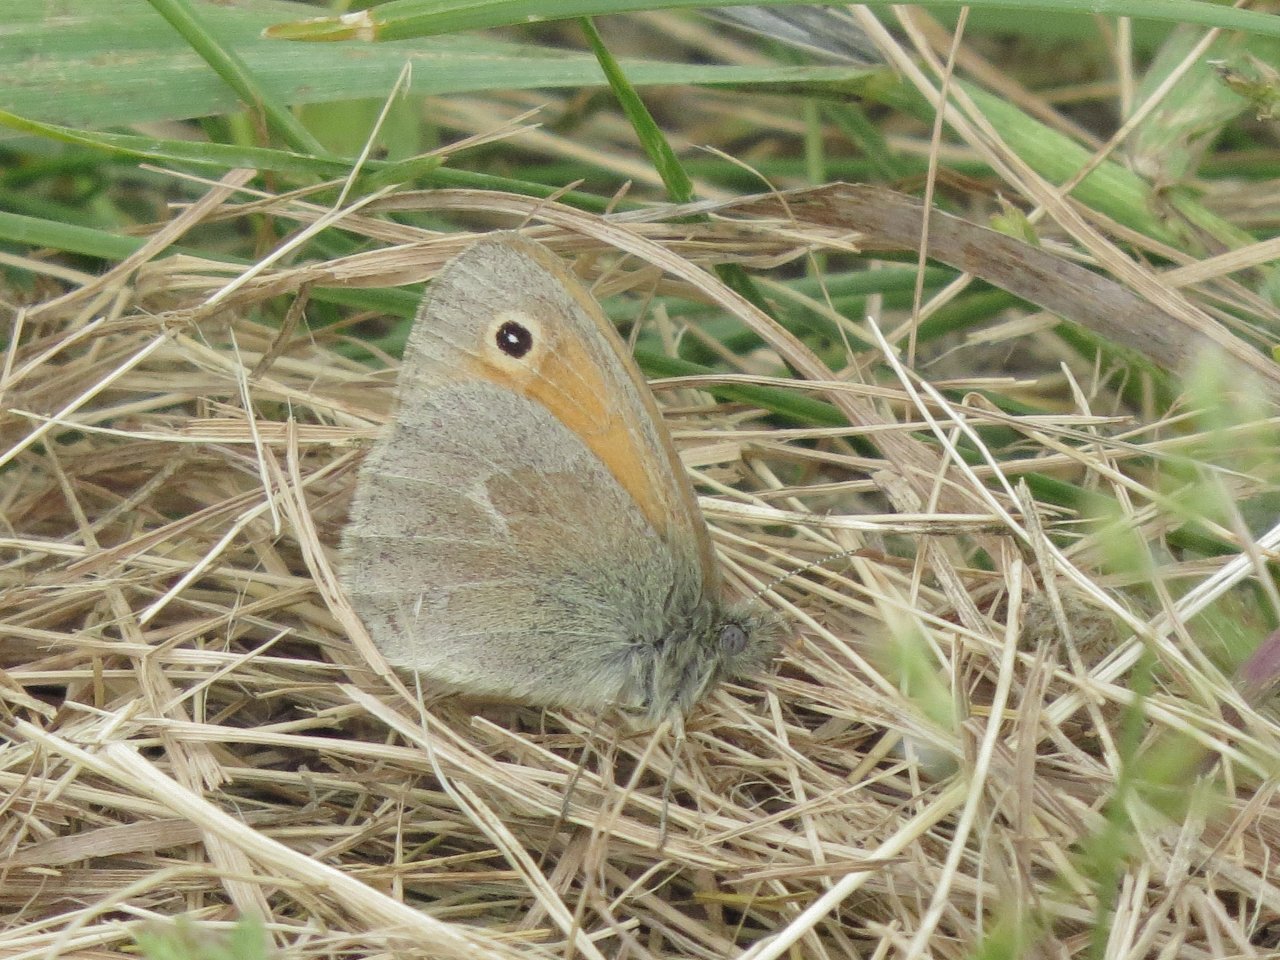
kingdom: Animalia
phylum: Arthropoda
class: Insecta
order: Lepidoptera
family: Nymphalidae
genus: Coenonympha
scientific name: Coenonympha tullia
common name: Large Heath
